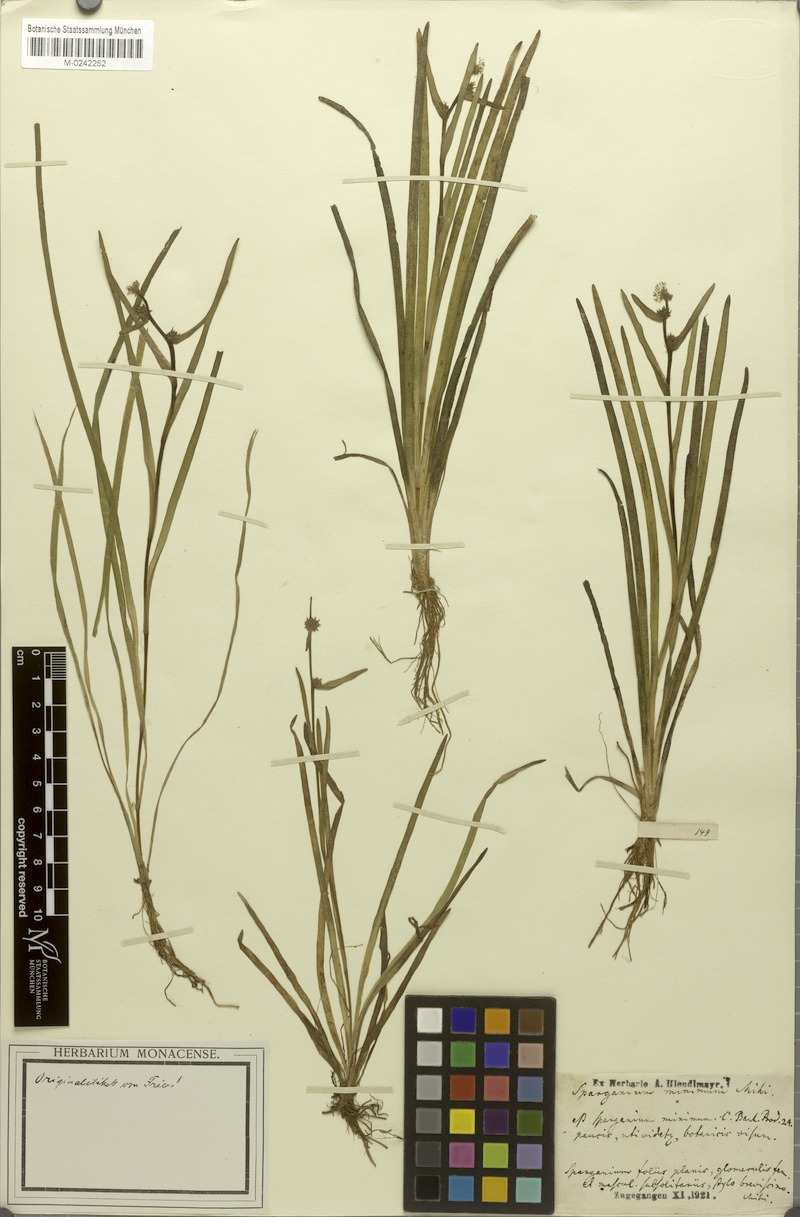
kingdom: Plantae
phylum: Tracheophyta
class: Liliopsida
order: Poales
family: Typhaceae
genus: Sparganium
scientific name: Sparganium natans
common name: Least bur-reed
